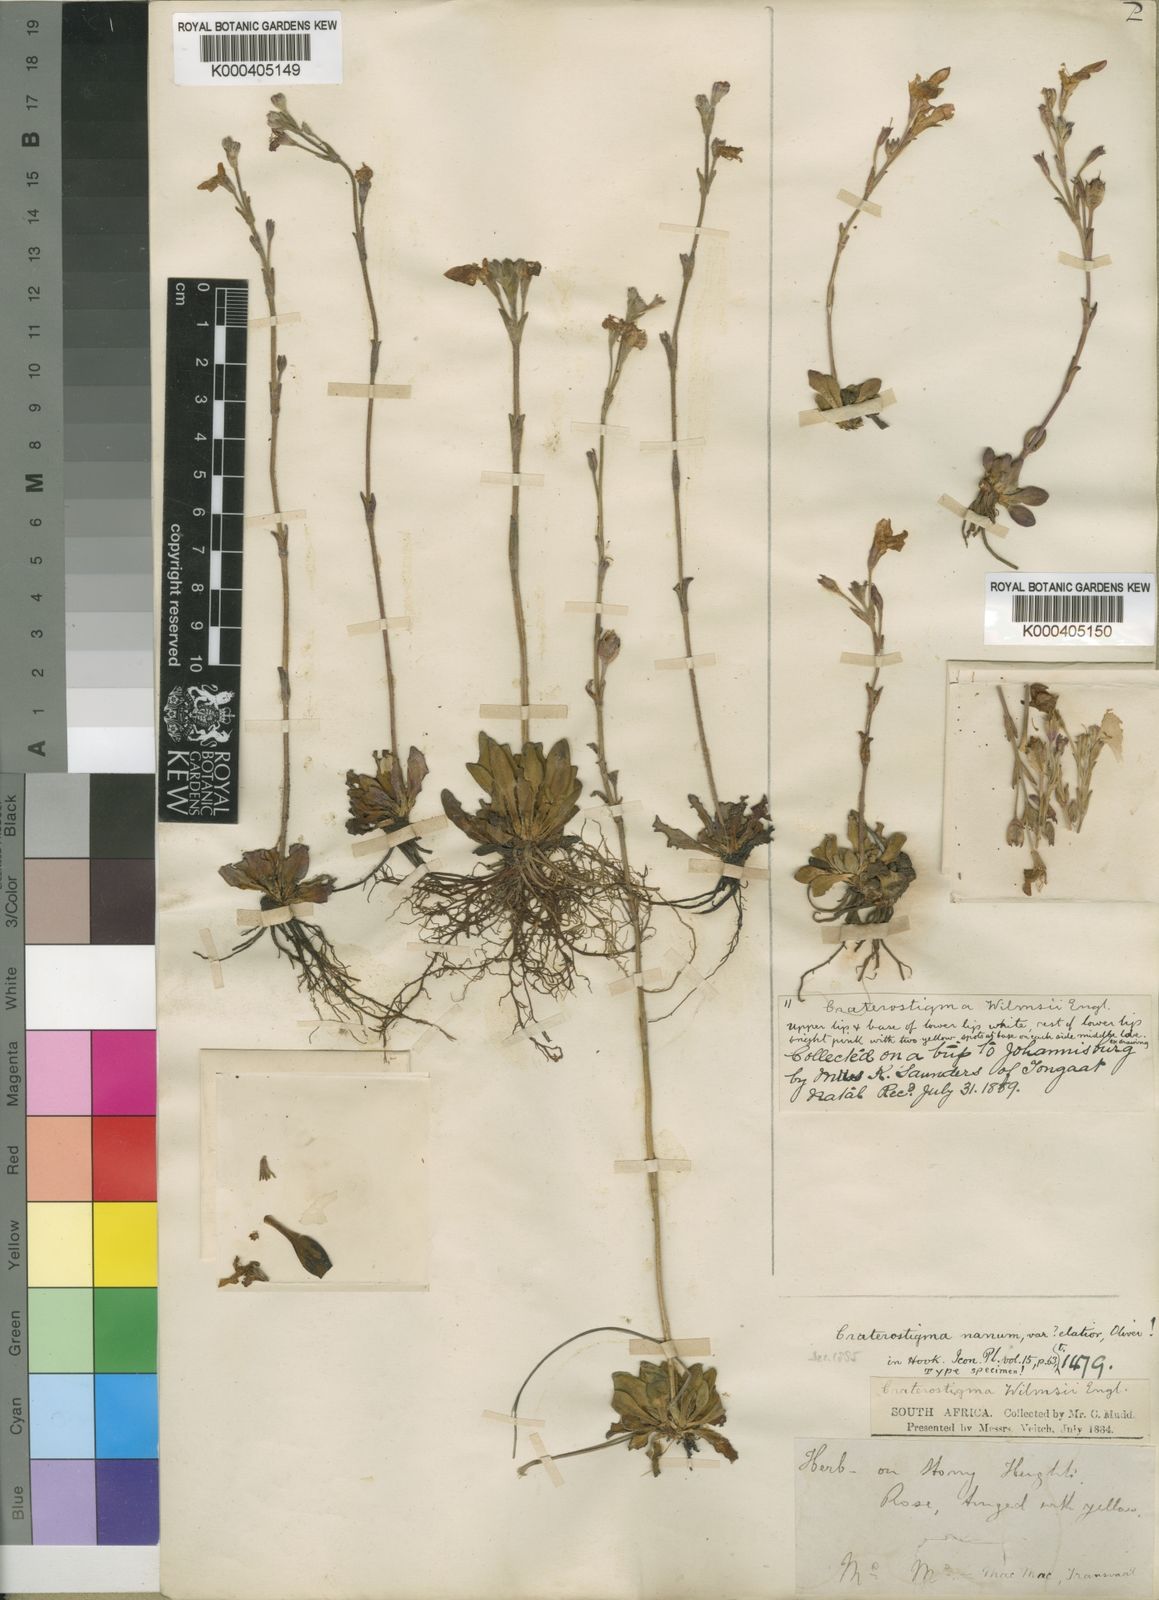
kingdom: Plantae
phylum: Tracheophyta
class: Magnoliopsida
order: Lamiales
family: Linderniaceae
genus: Craterostigma
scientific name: Craterostigma
